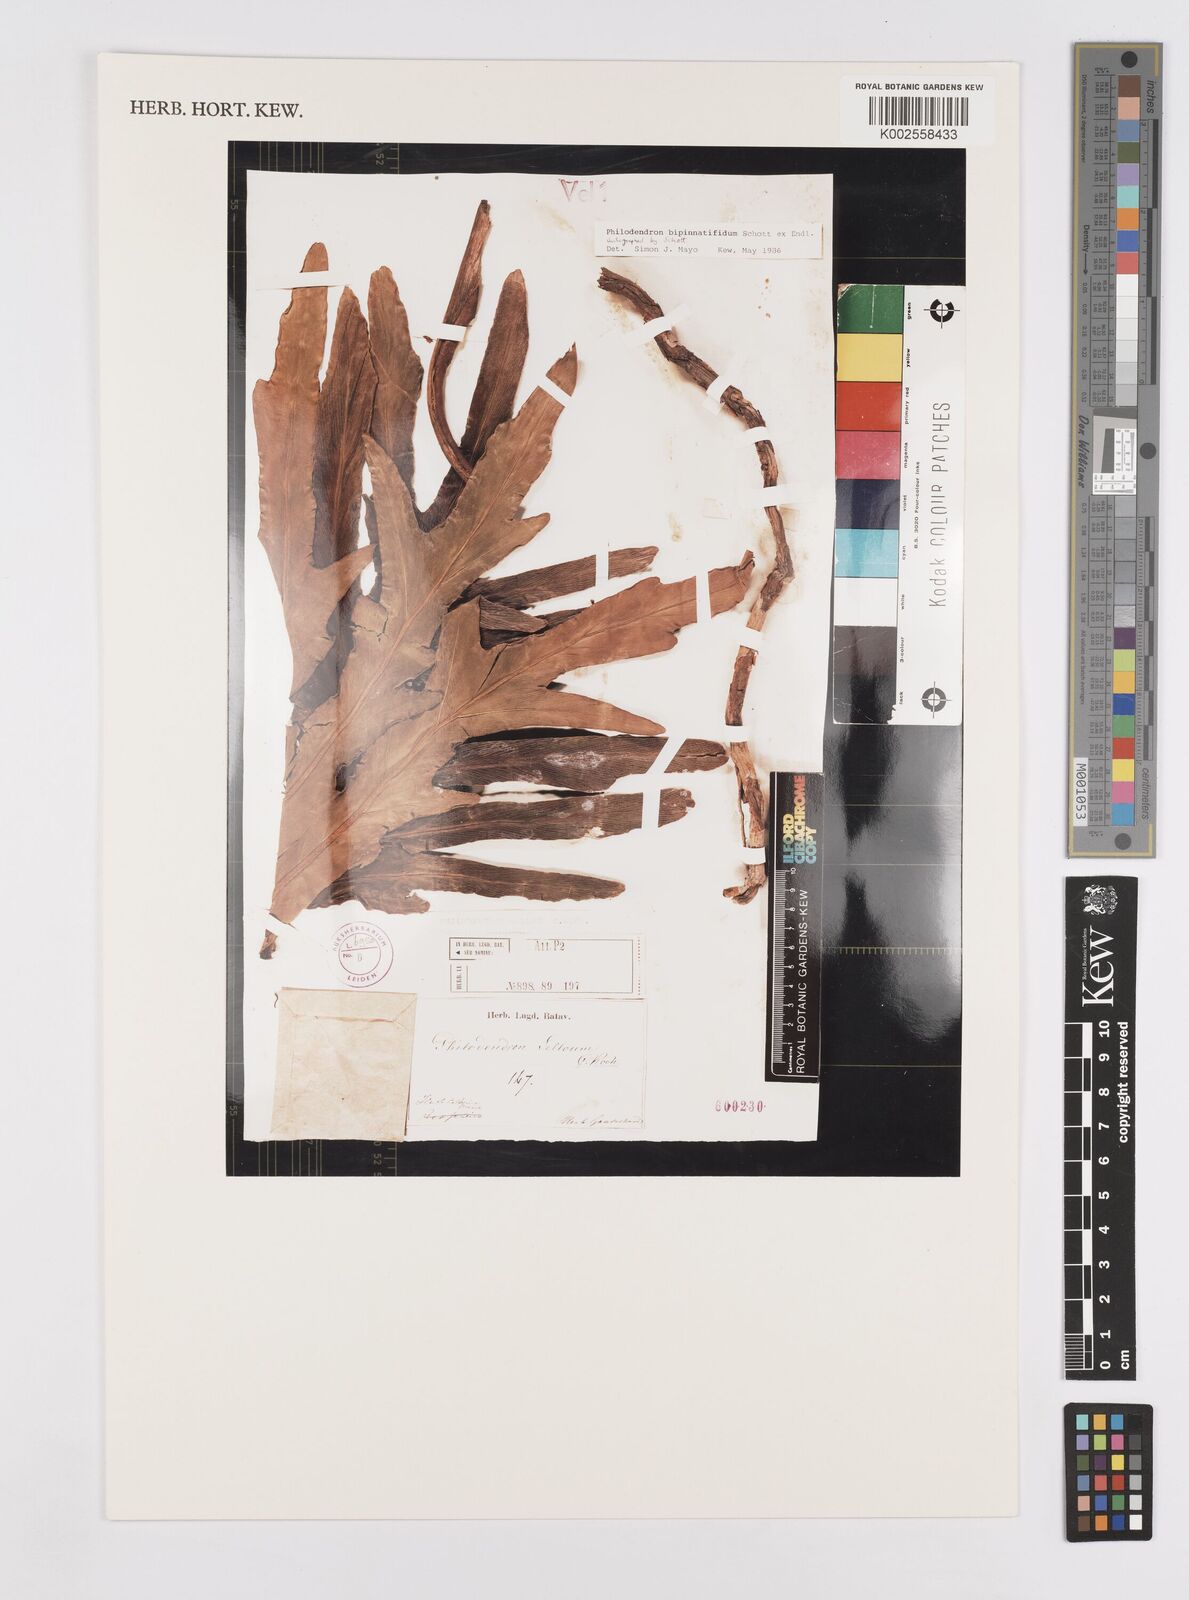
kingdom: Plantae
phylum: Tracheophyta
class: Liliopsida
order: Alismatales
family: Araceae
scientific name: Araceae
